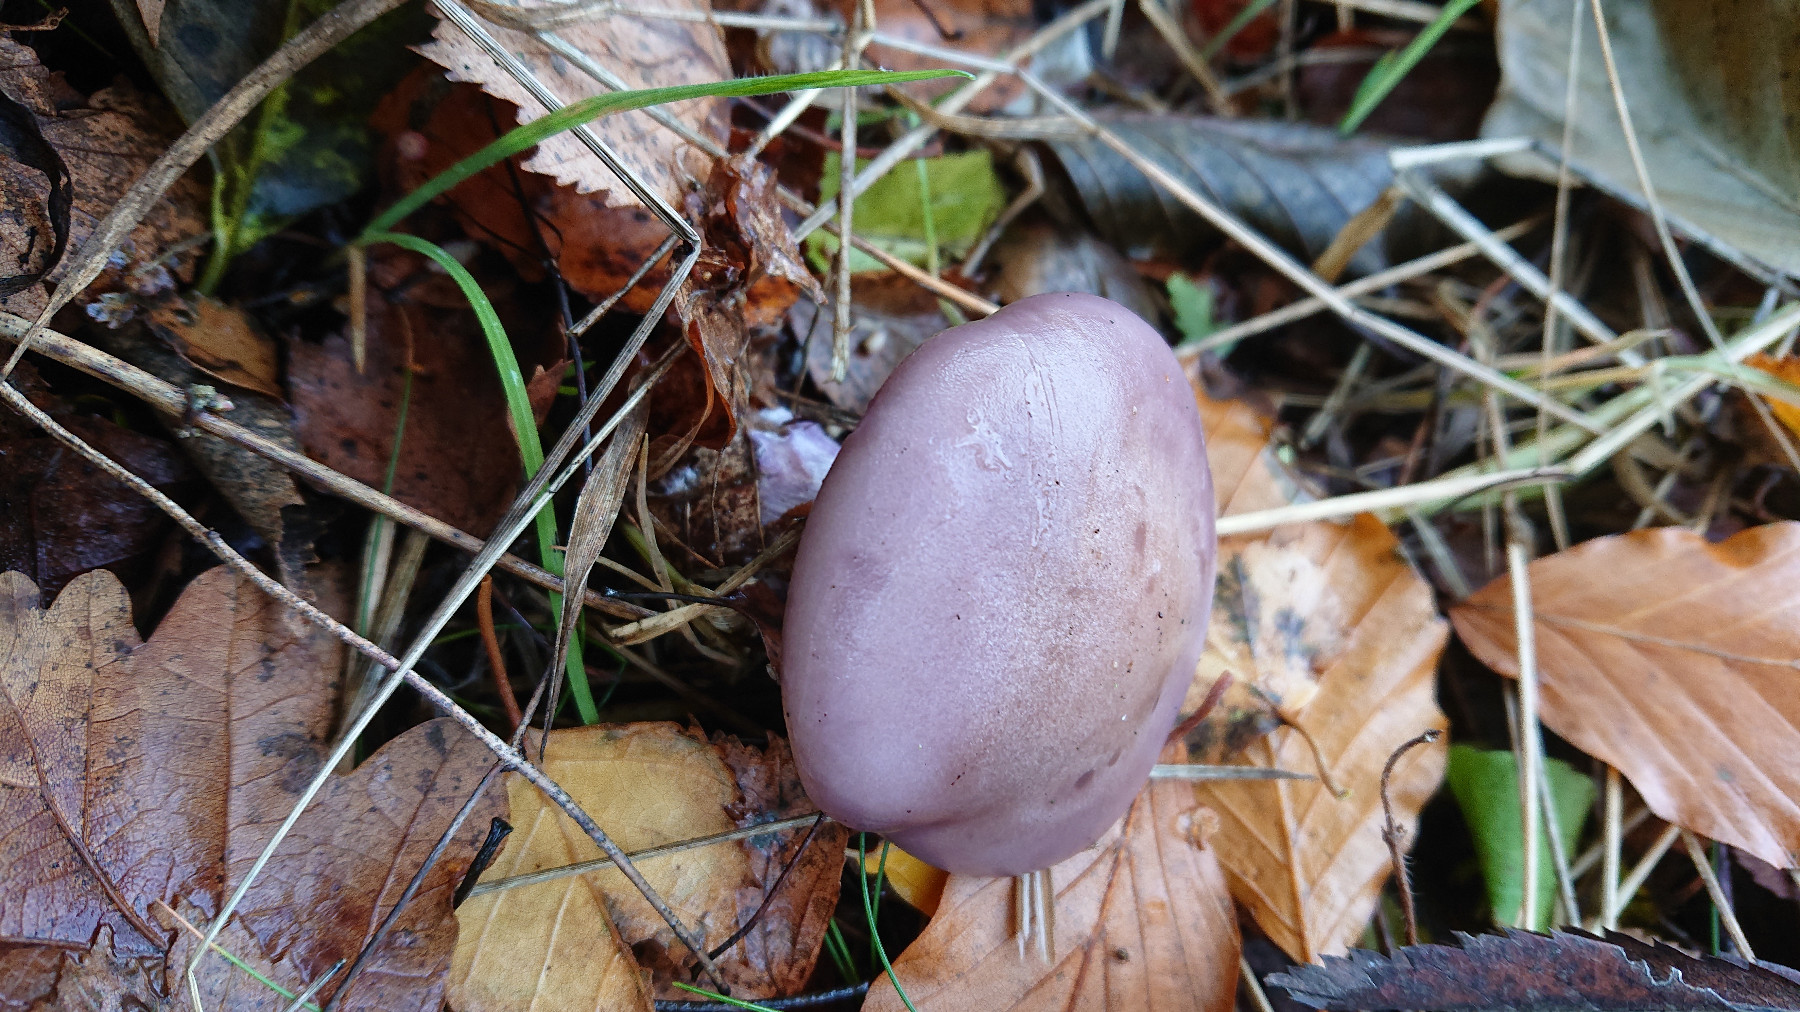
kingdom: Fungi
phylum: Basidiomycota
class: Agaricomycetes
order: Agaricales
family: Tricholomataceae
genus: Lepista
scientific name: Lepista nuda
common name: violet hekseringshat
